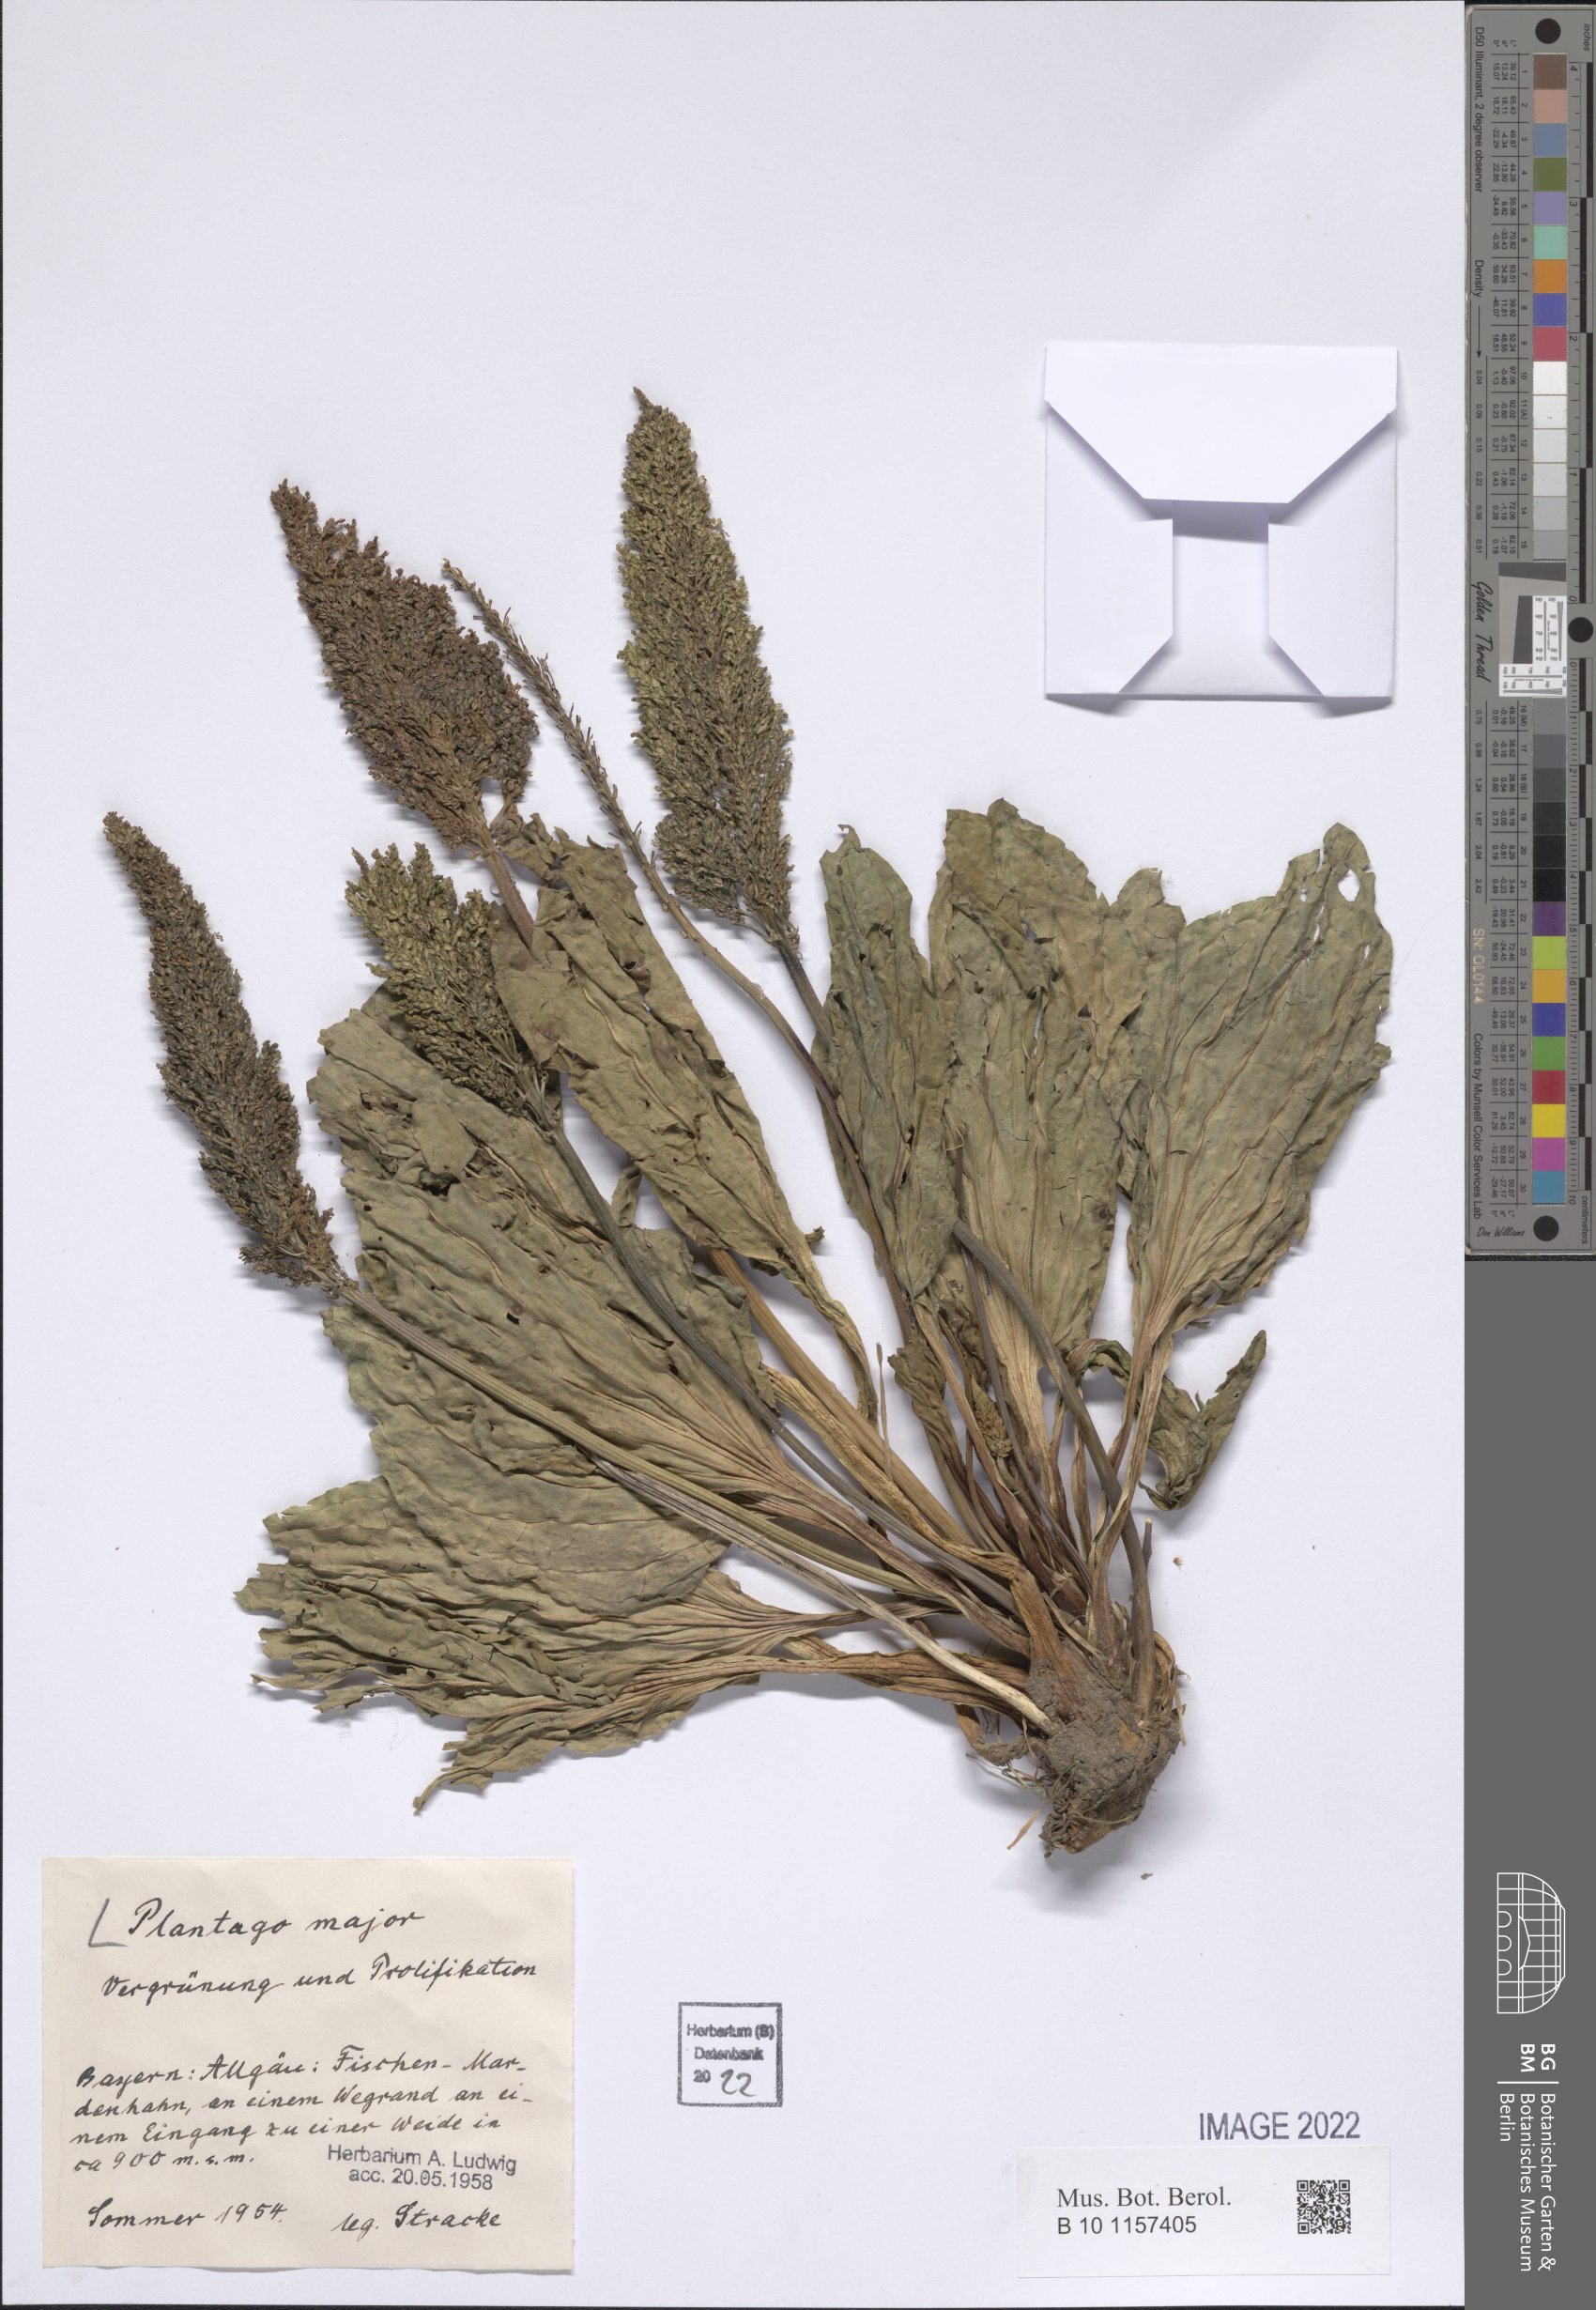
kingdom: Plantae
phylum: Tracheophyta
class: Magnoliopsida
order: Lamiales
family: Plantaginaceae
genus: Plantago
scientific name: Plantago major
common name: Common plantain
